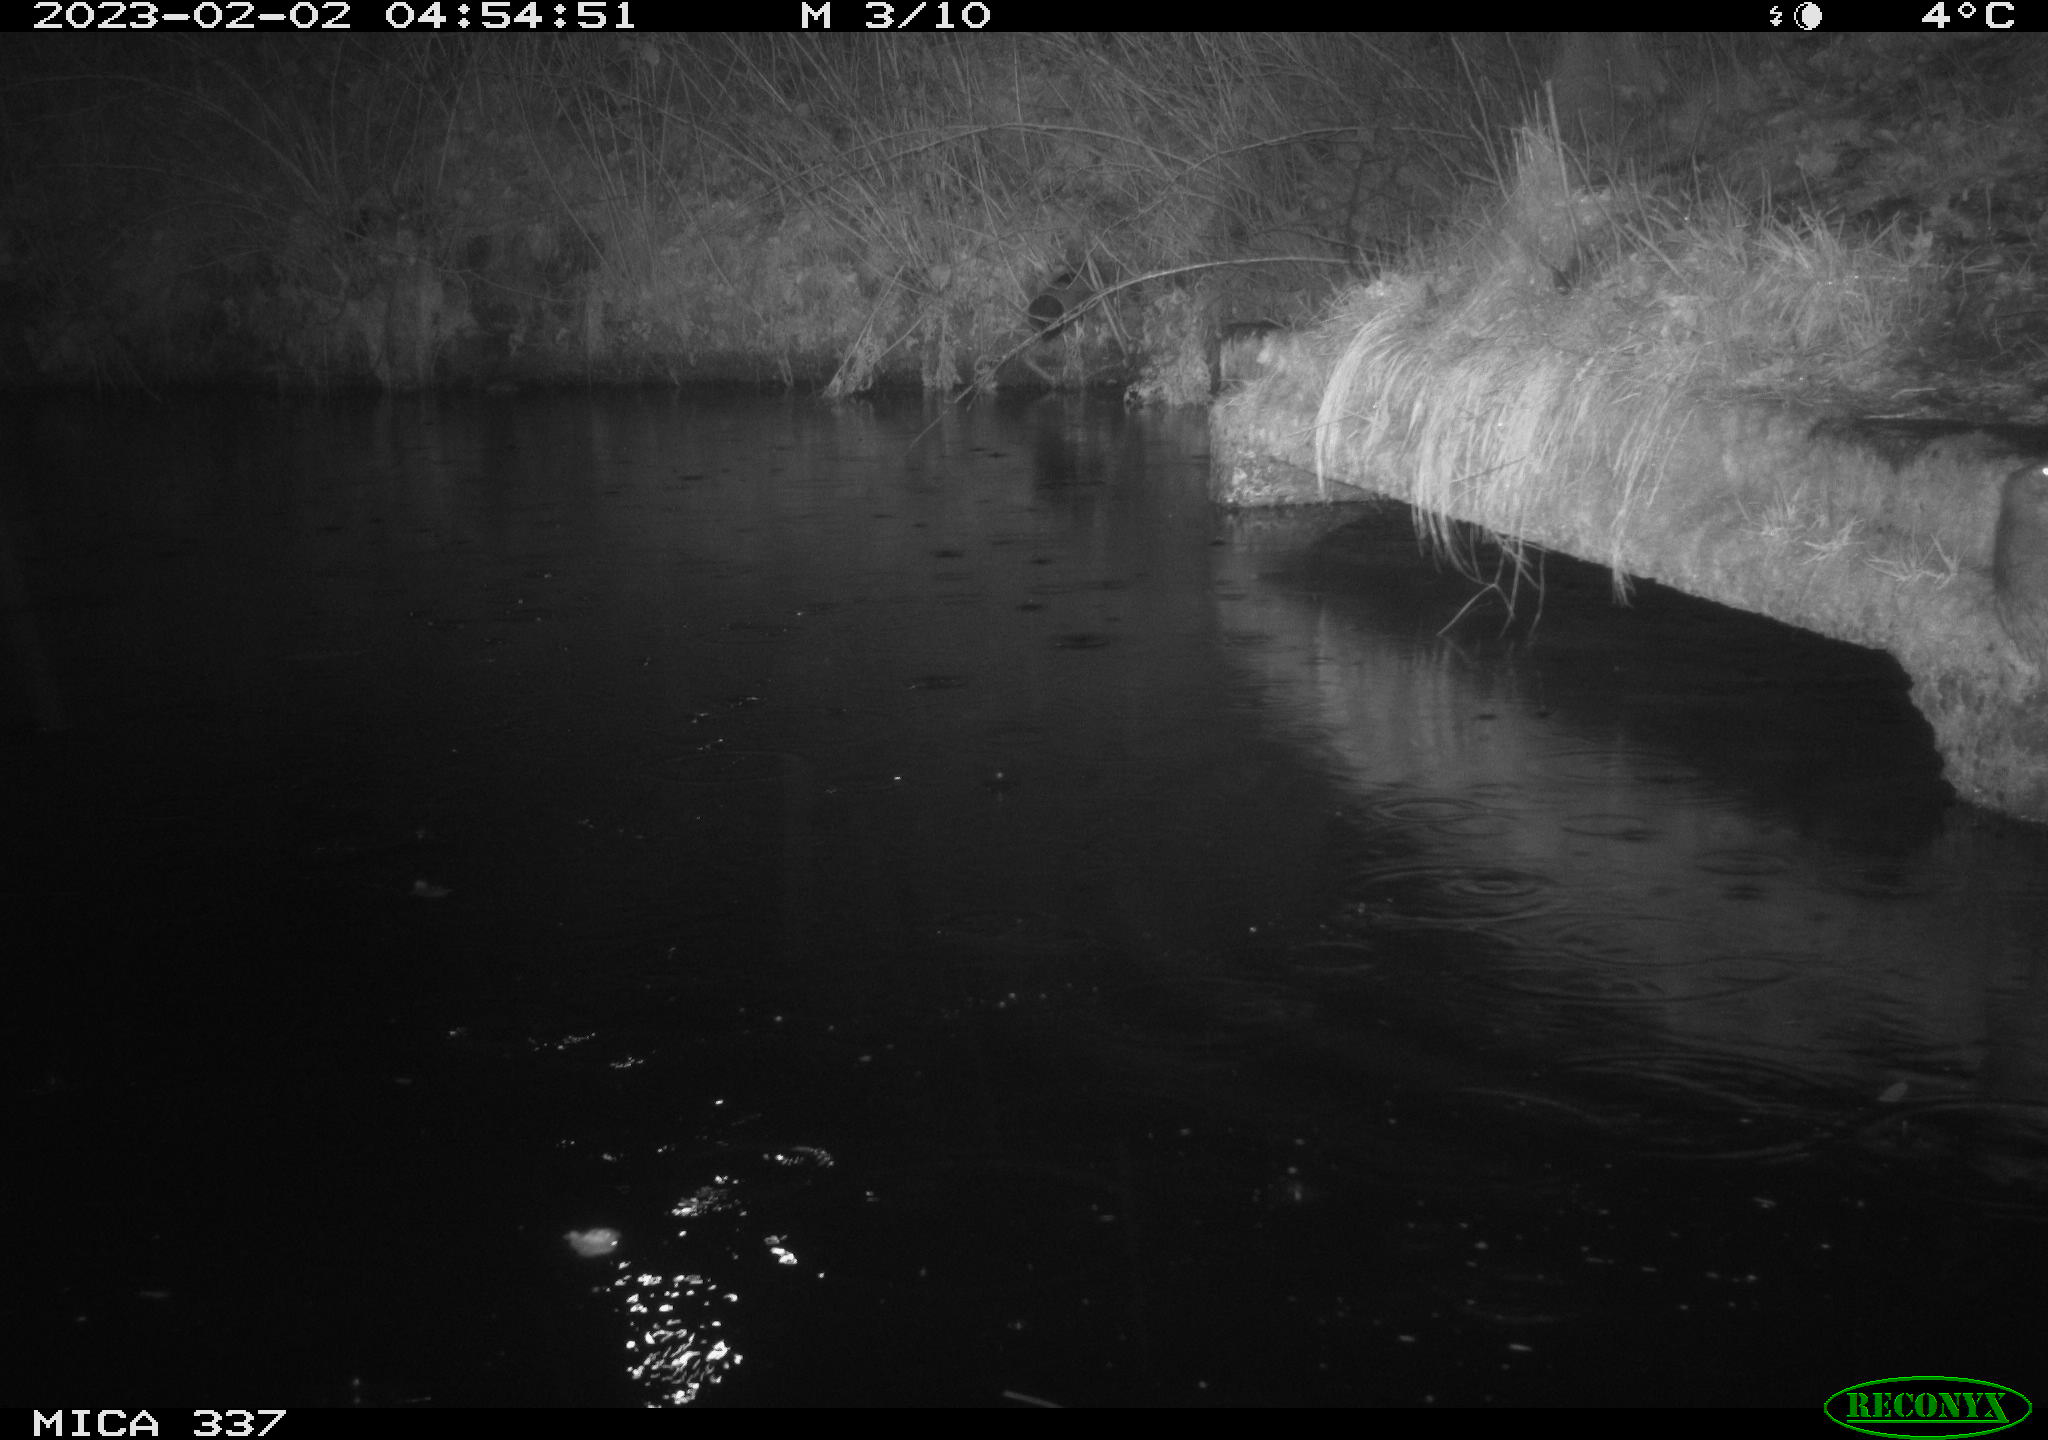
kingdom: Animalia
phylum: Chordata
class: Mammalia
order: Rodentia
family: Muridae
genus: Rattus
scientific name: Rattus norvegicus
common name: Brown rat
